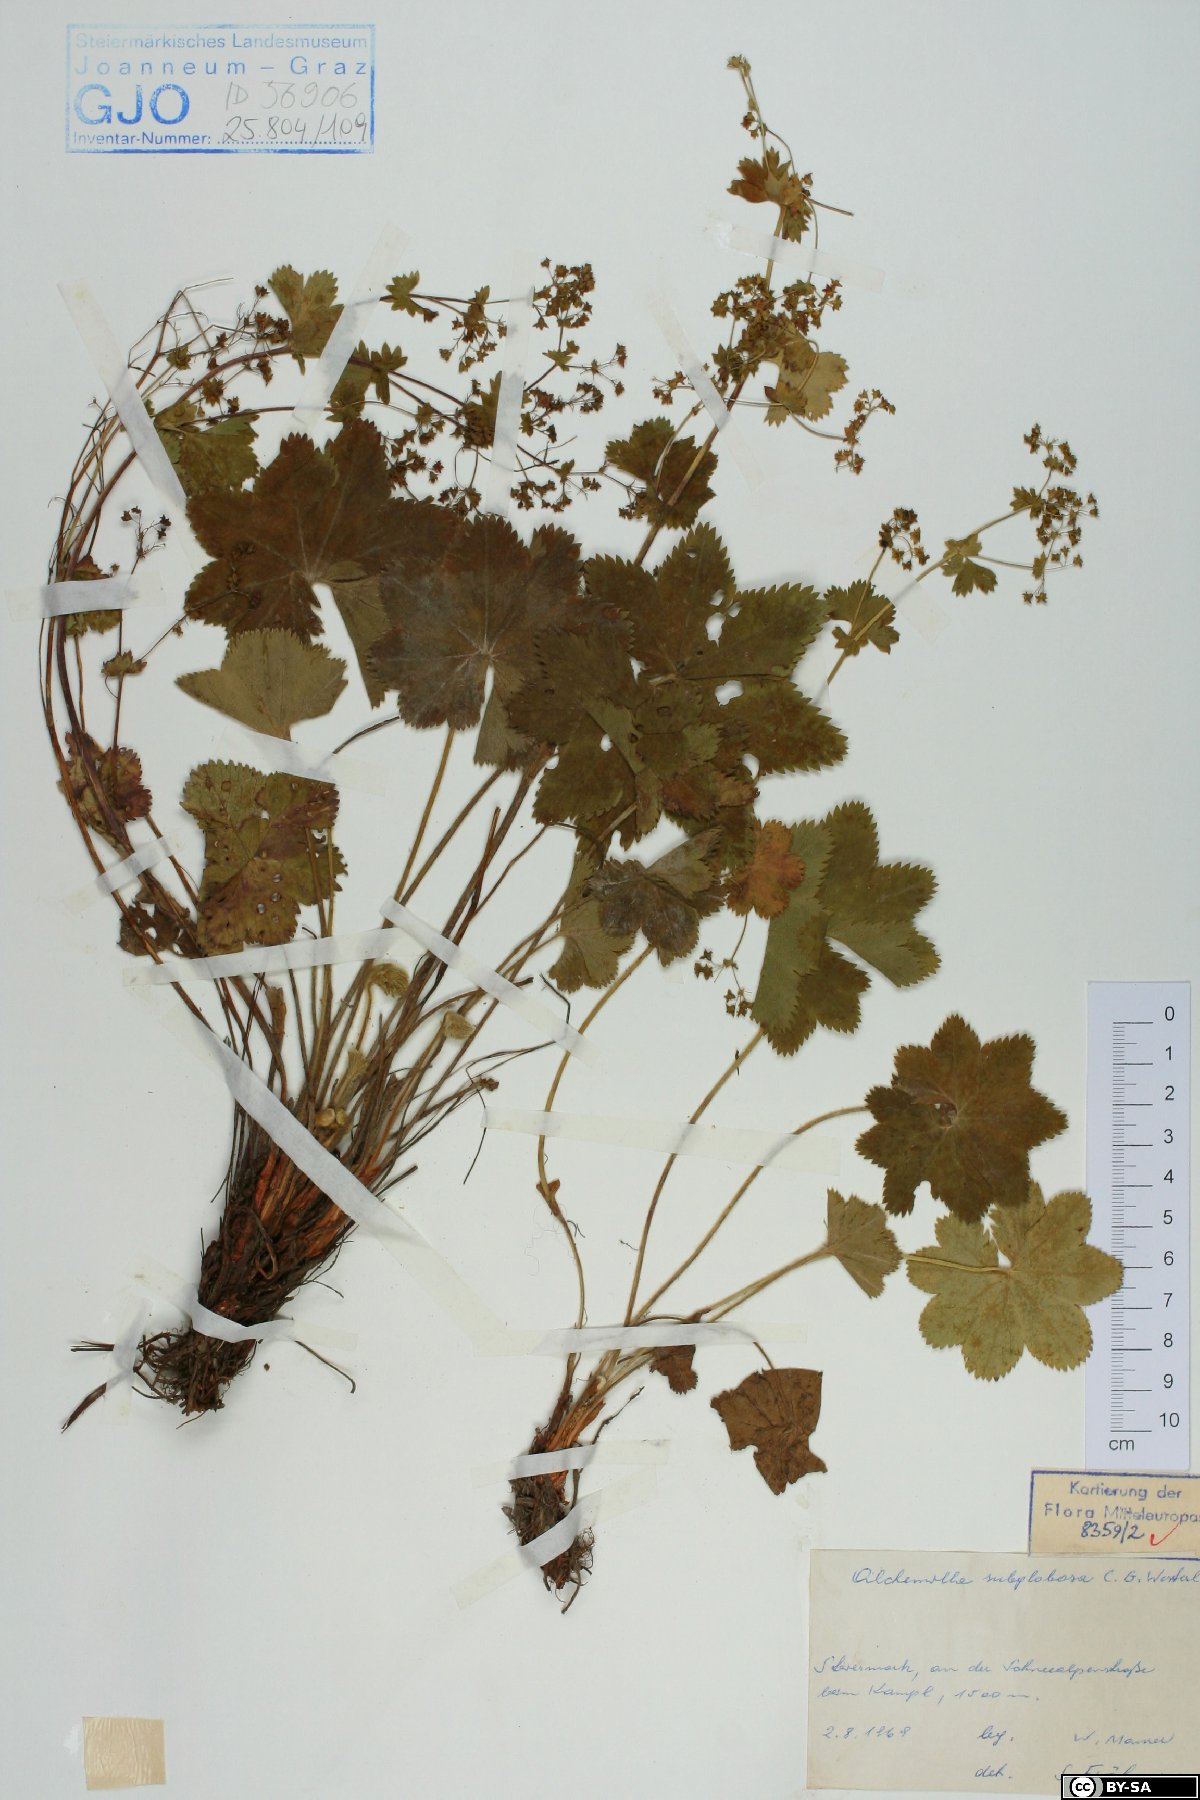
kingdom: Plantae
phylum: Tracheophyta
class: Magnoliopsida
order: Rosales
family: Rosaceae
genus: Alchemilla
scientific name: Alchemilla subglobosa
